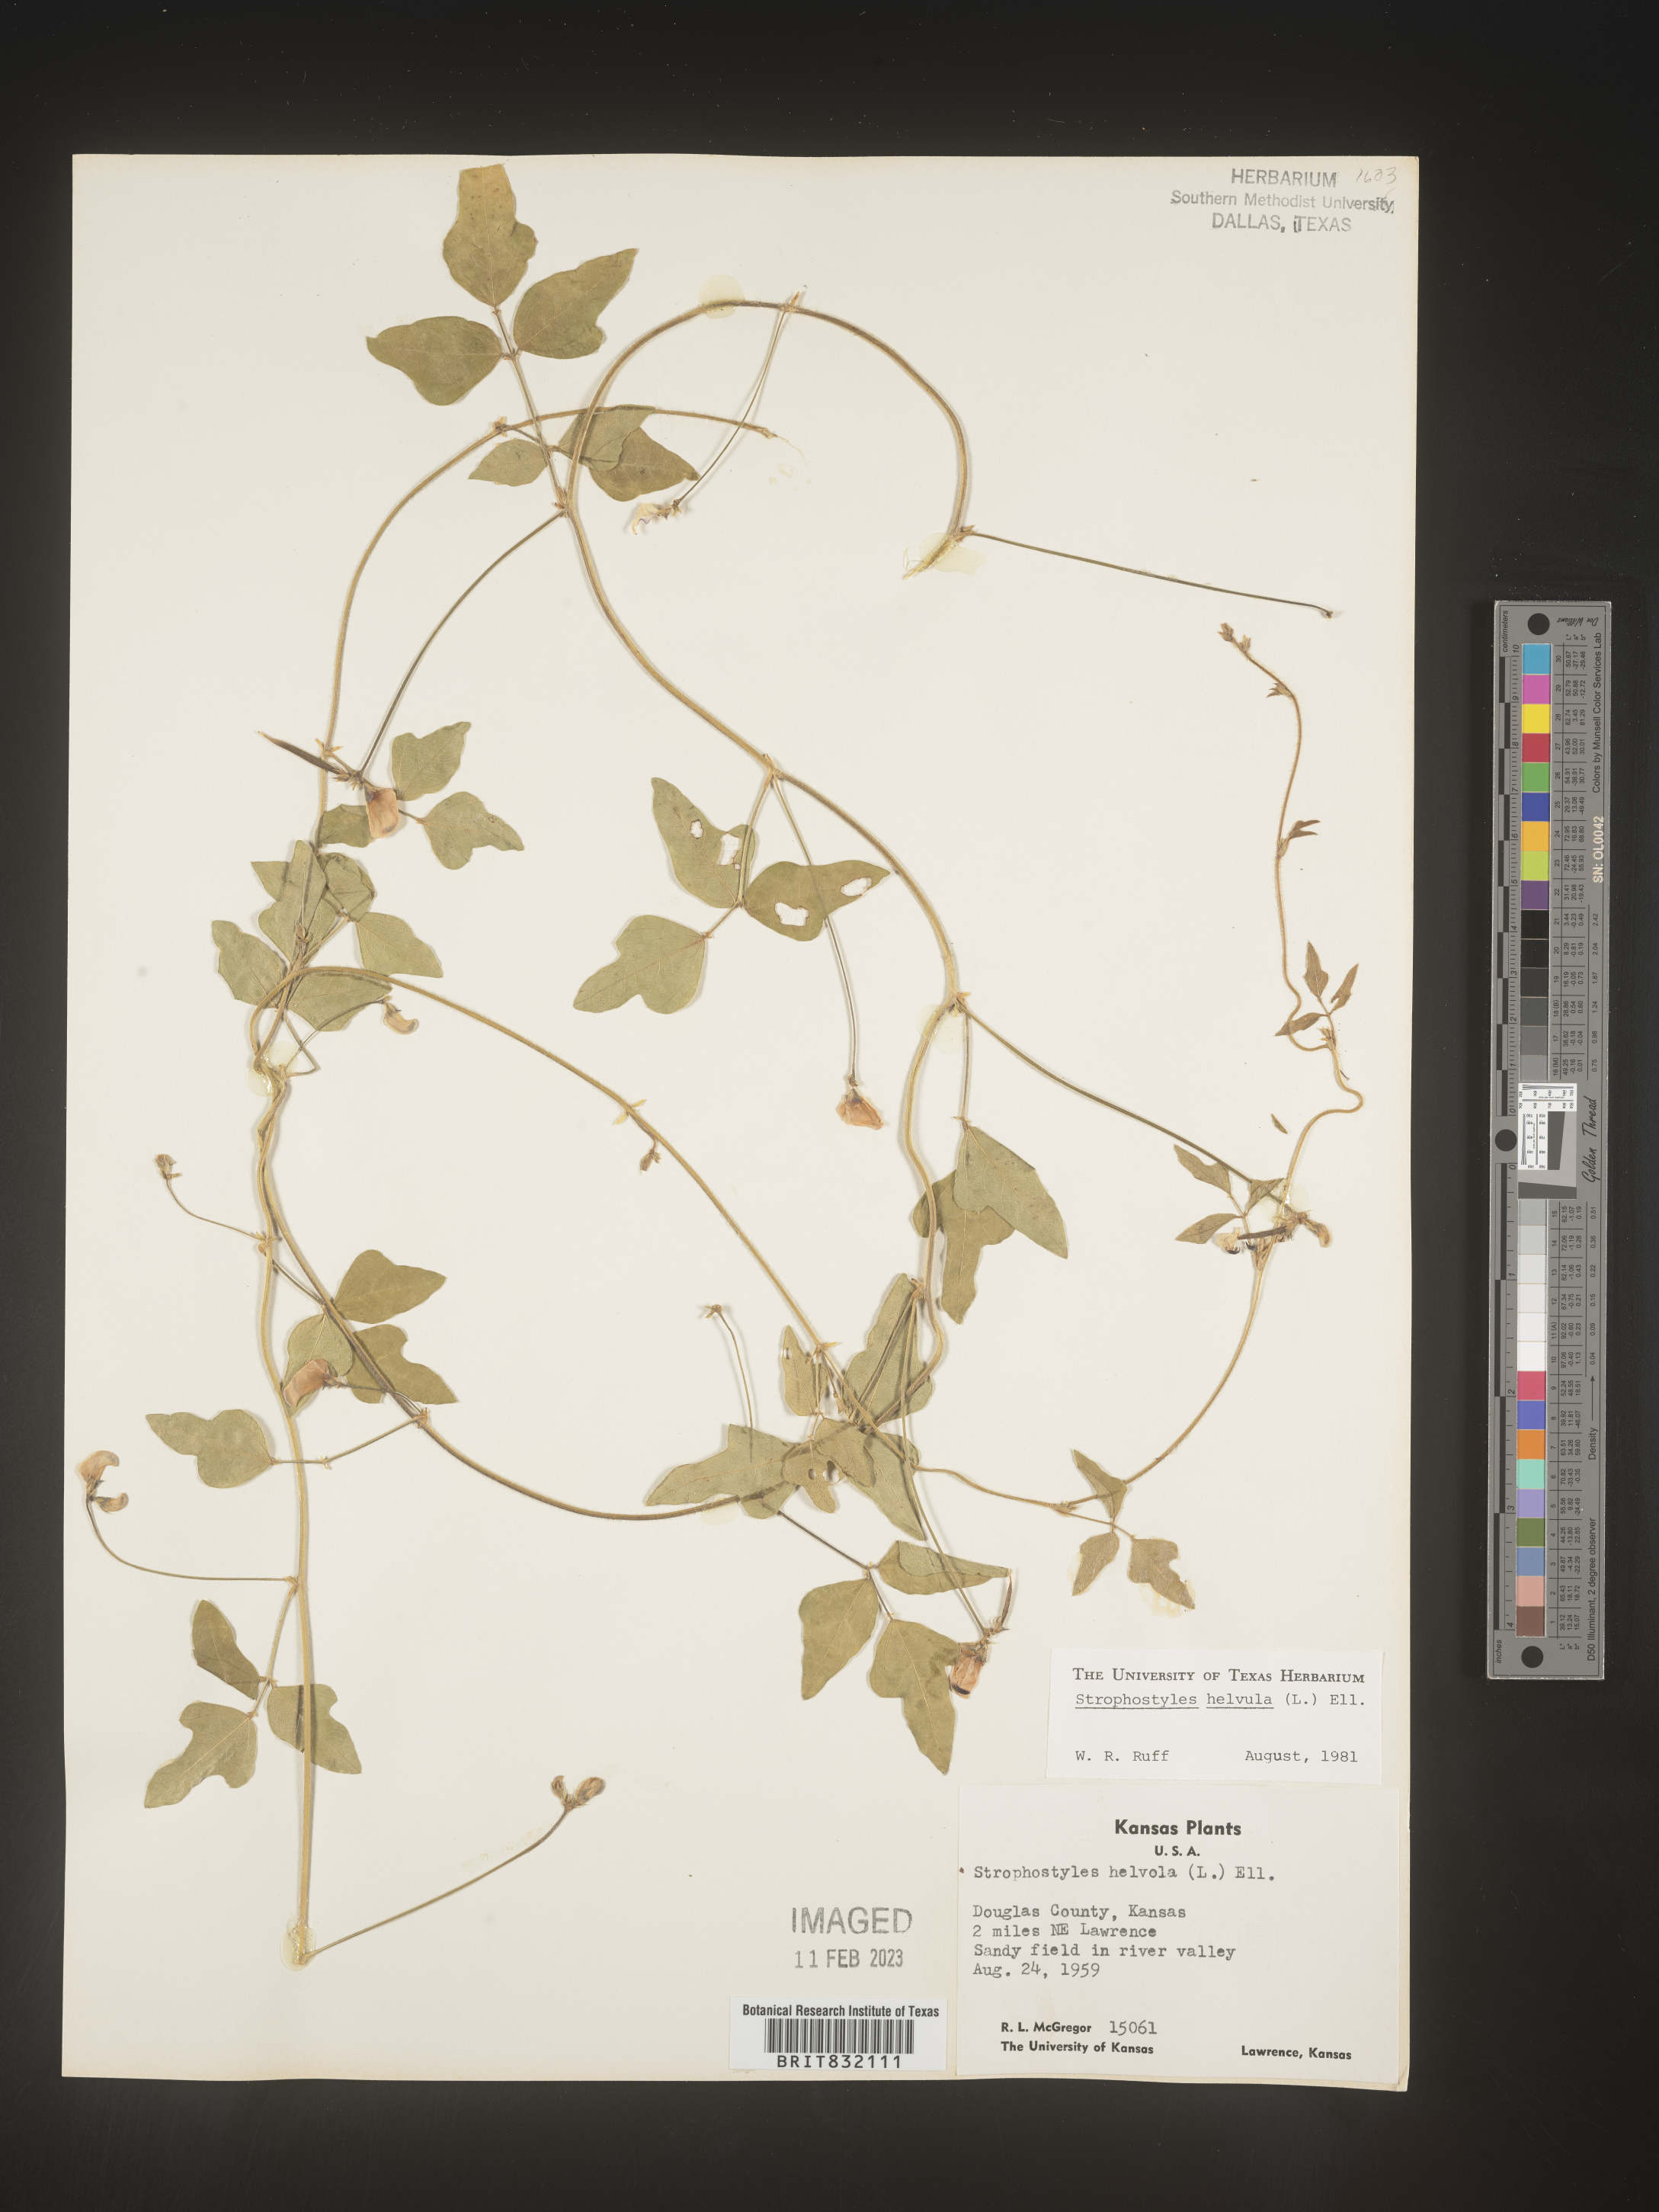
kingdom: Plantae
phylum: Tracheophyta
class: Magnoliopsida
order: Fabales
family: Fabaceae
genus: Strophostyles
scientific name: Strophostyles helvola
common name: Trailing wild bean
